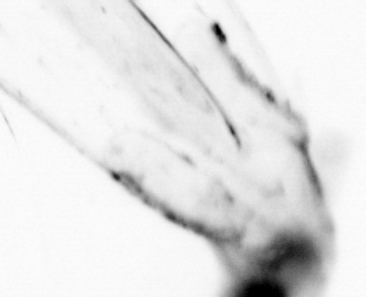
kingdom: Animalia
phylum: Chaetognatha
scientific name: Chaetognatha
